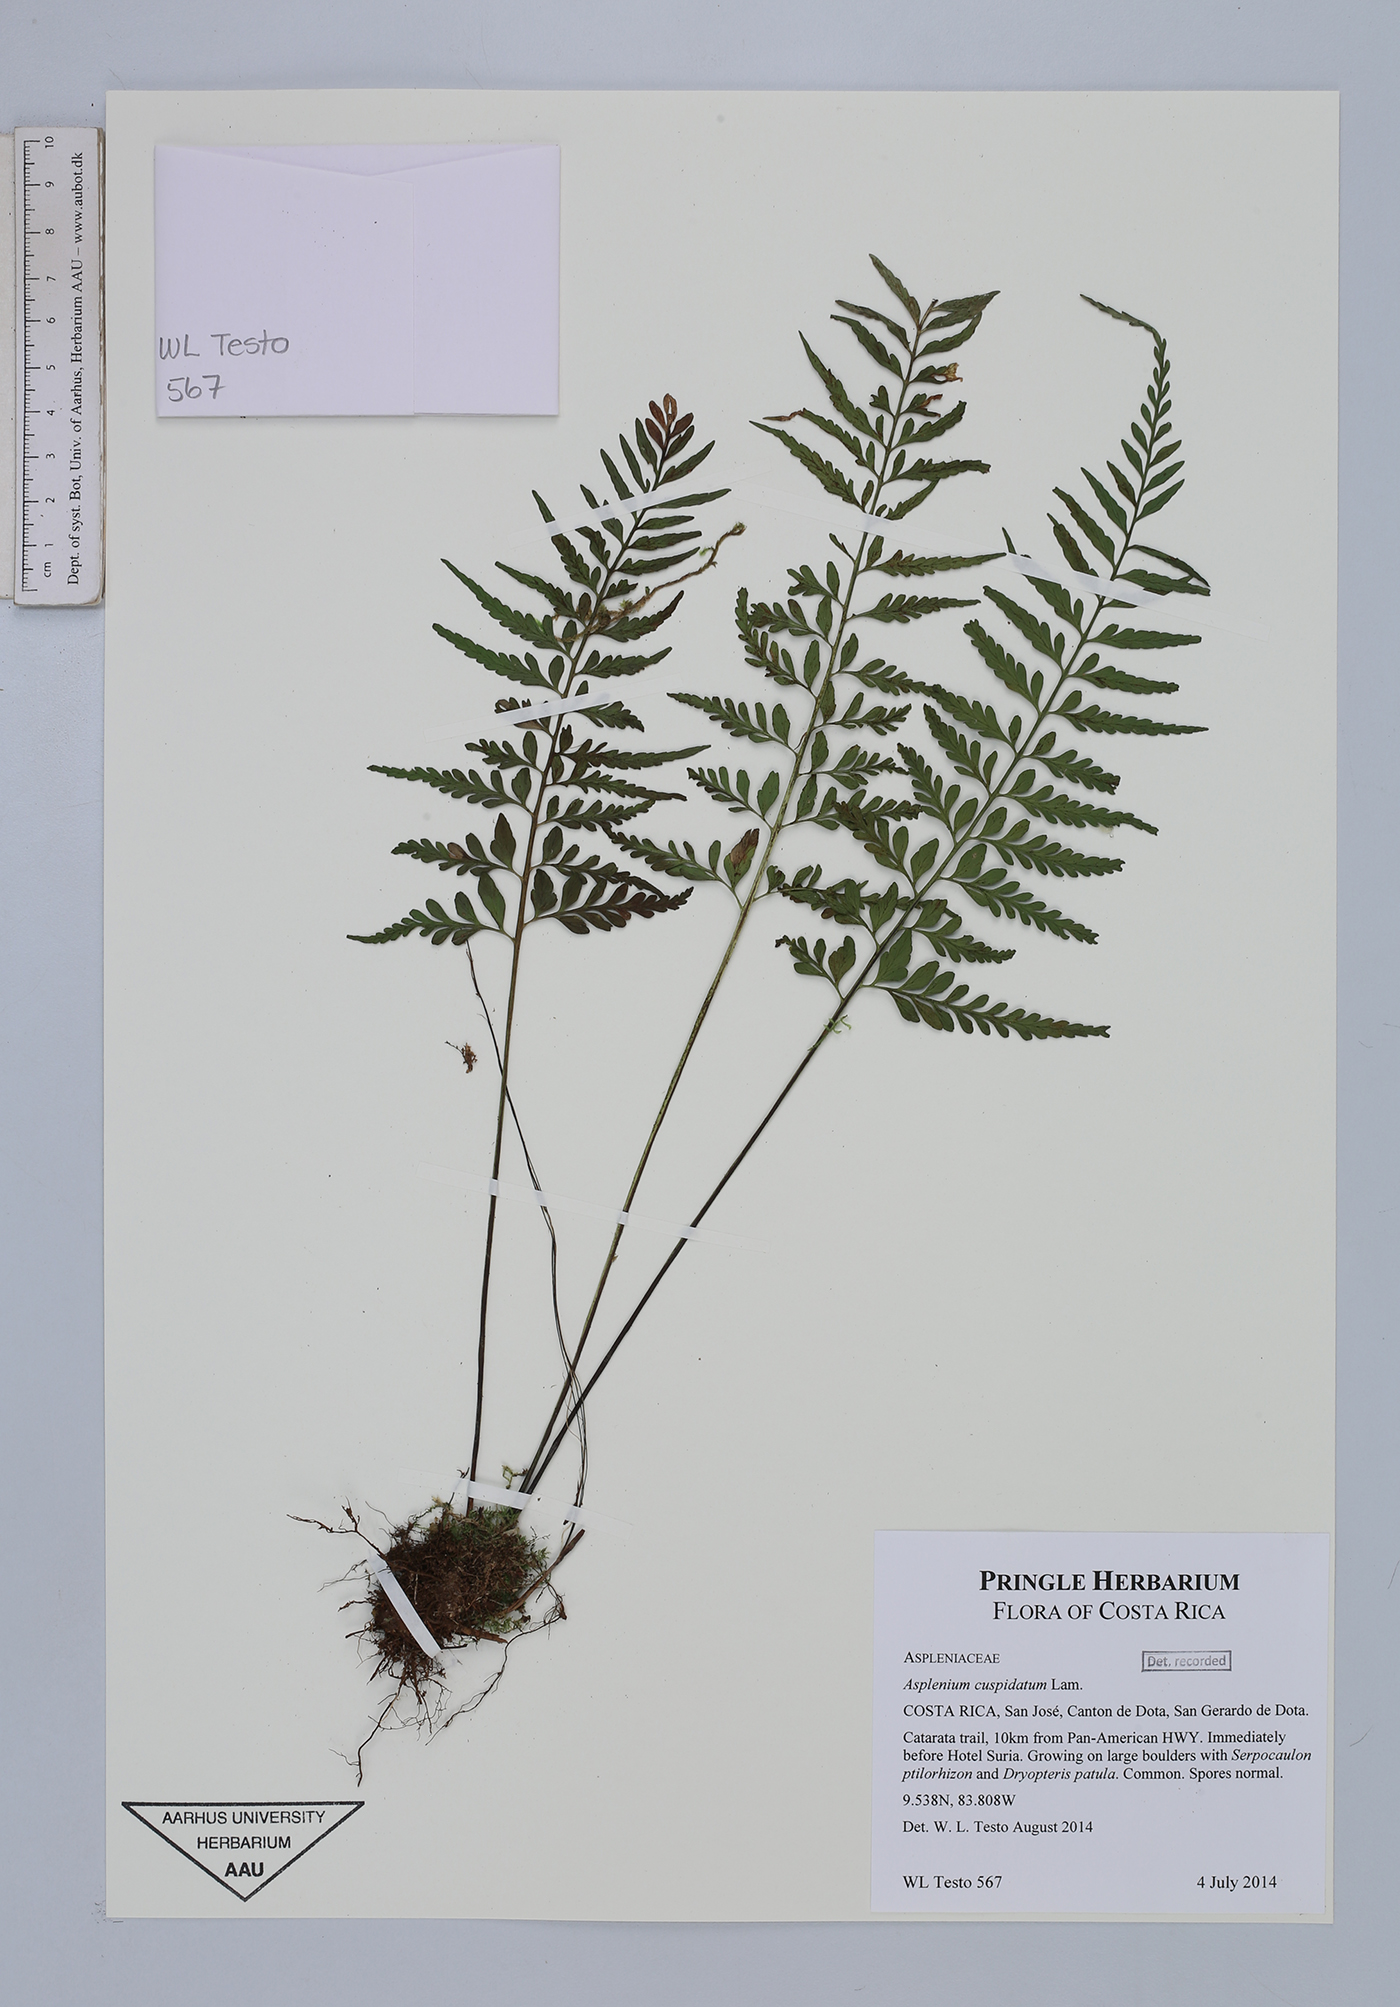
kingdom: Plantae
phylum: Tracheophyta
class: Polypodiopsida
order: Polypodiales
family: Aspleniaceae
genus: Asplenium
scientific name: Asplenium cuspidatum
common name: Eared spleenwort
